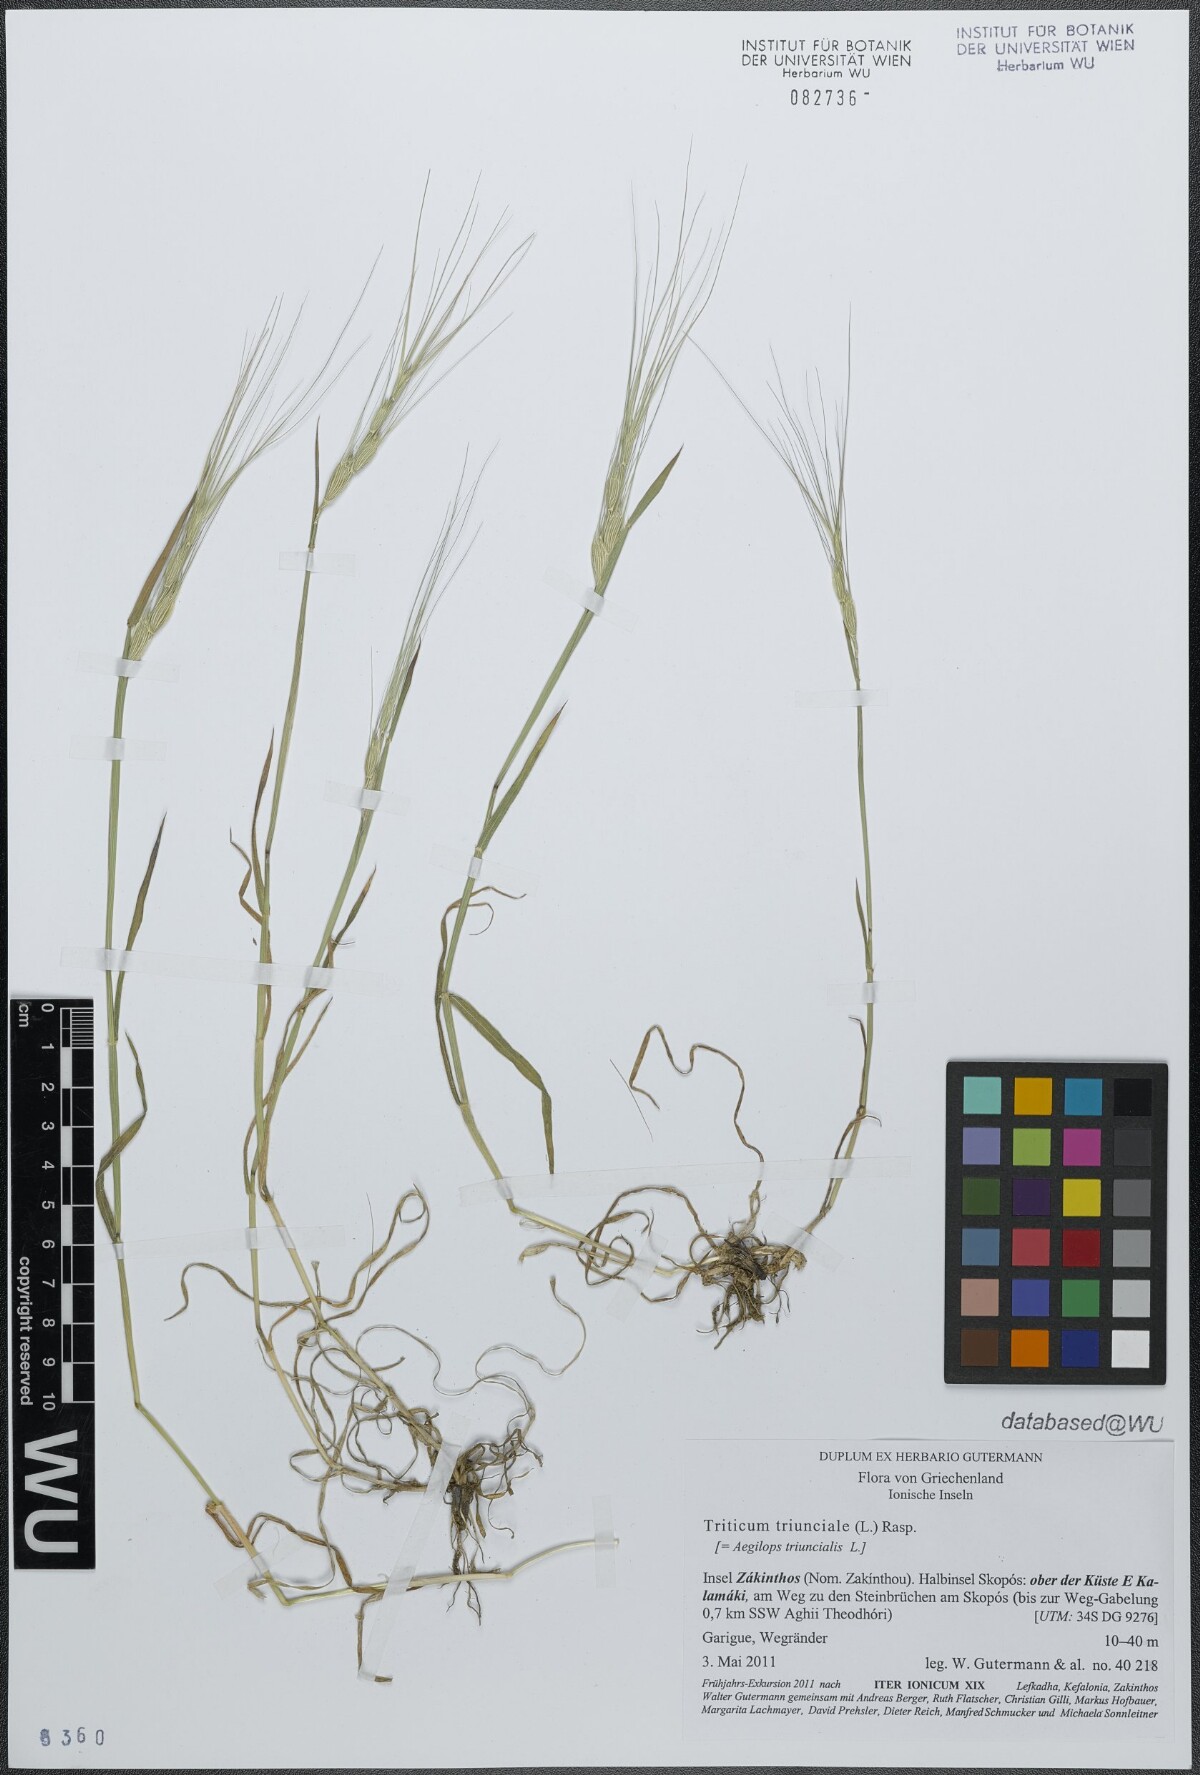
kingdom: Plantae
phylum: Tracheophyta
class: Liliopsida
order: Poales
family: Poaceae
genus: Aegilops
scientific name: Aegilops triuncialis
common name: Barb goat grass
